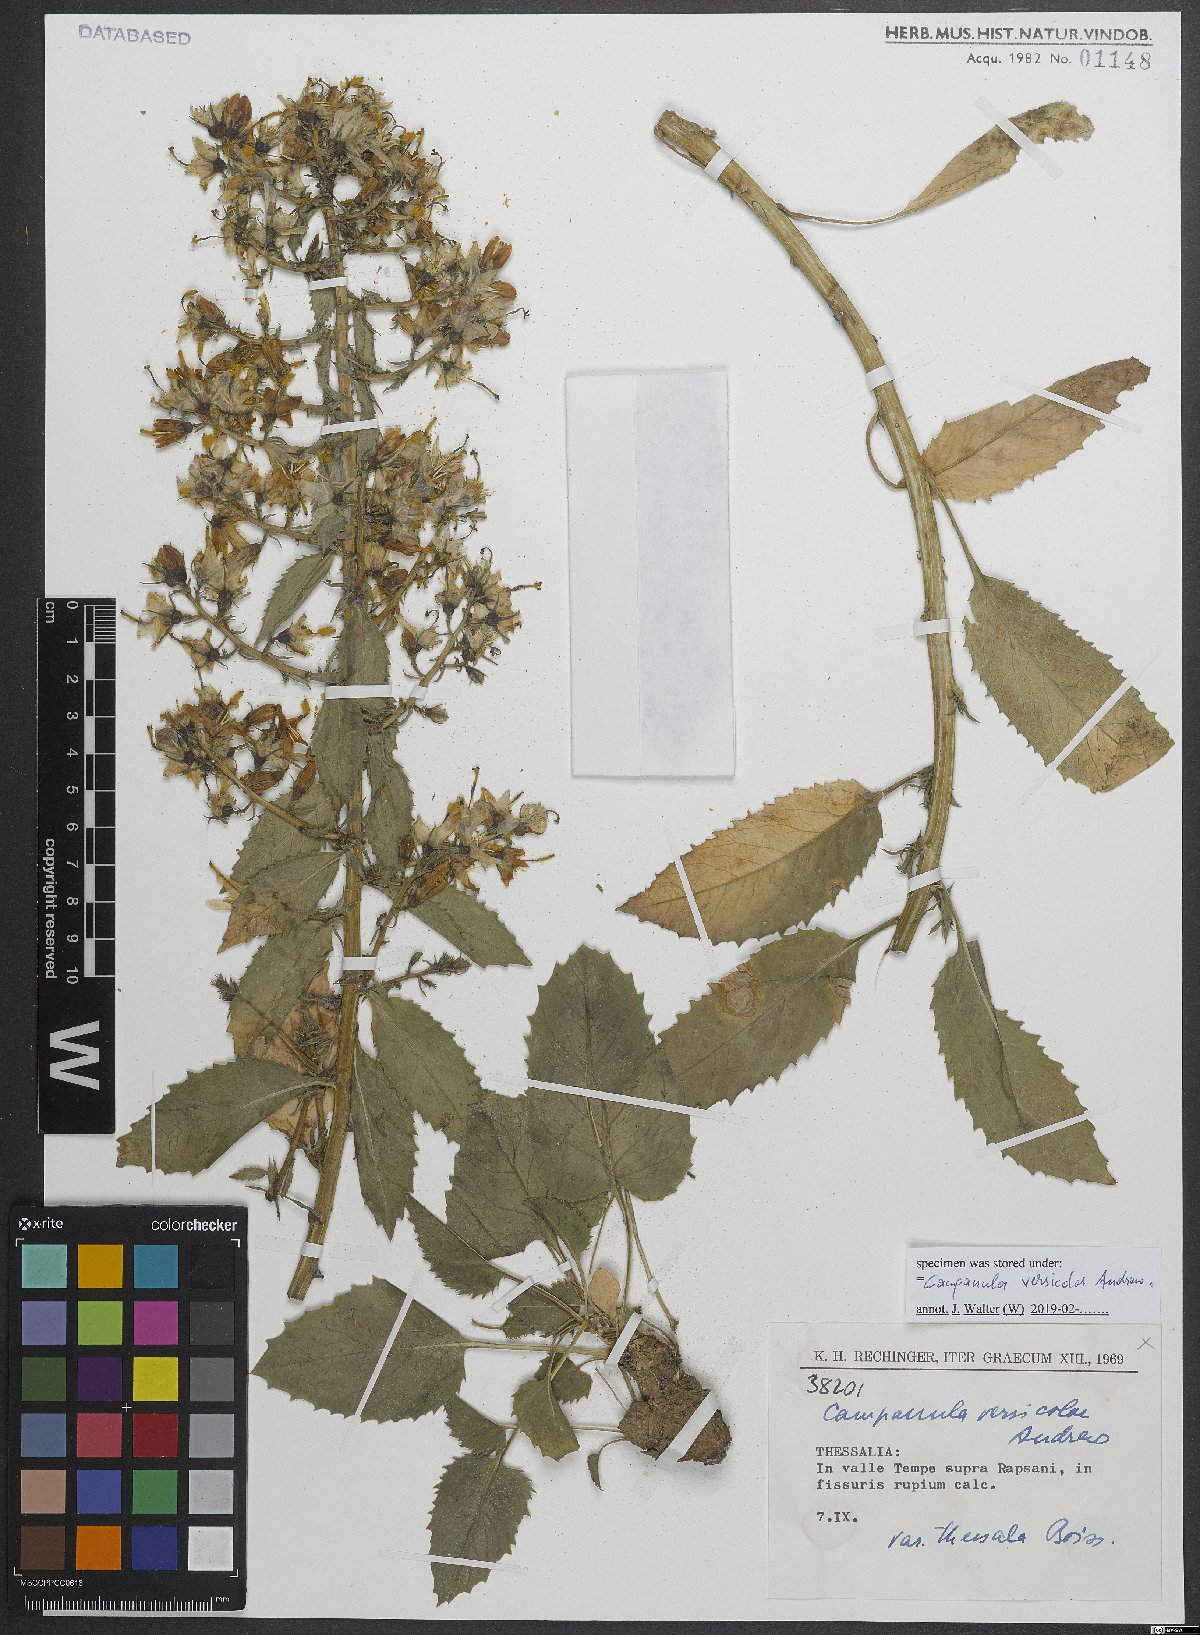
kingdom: Plantae
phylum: Tracheophyta
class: Magnoliopsida
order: Asterales
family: Campanulaceae
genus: Campanula
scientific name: Campanula versicolor
